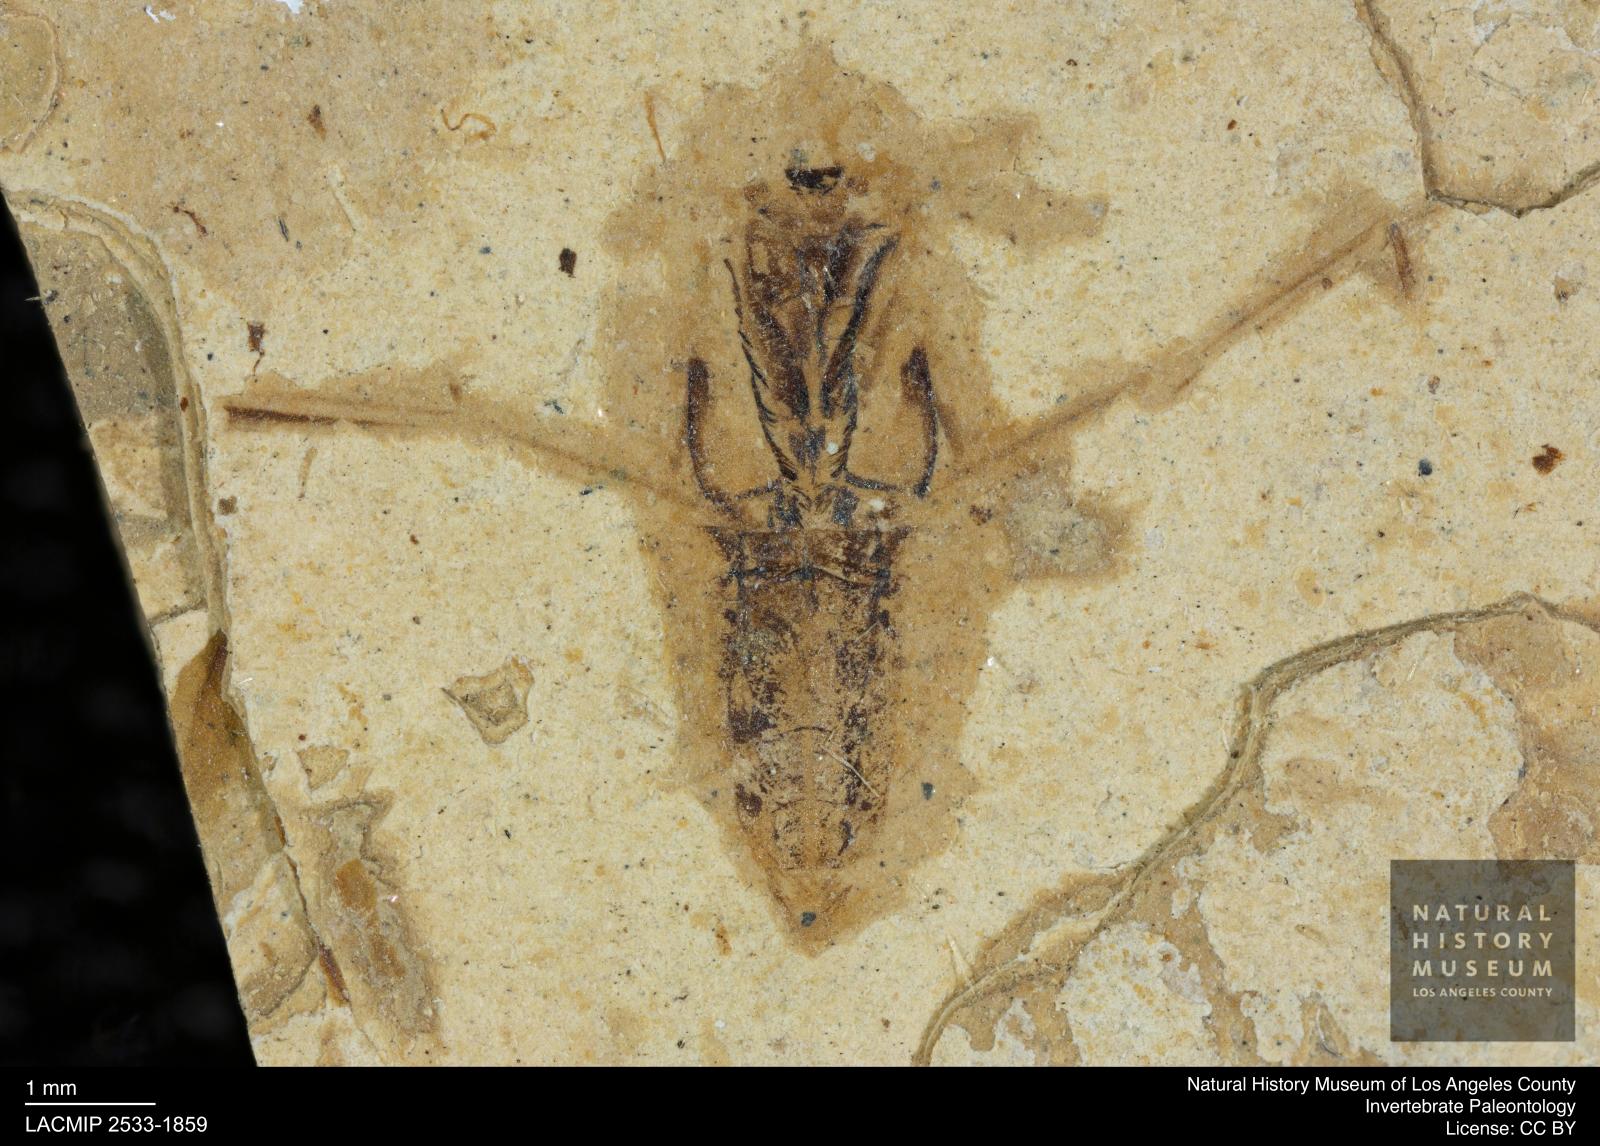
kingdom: Animalia
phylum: Arthropoda
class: Insecta
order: Hemiptera
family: Notonectidae
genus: Notonecta
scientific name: Notonecta
